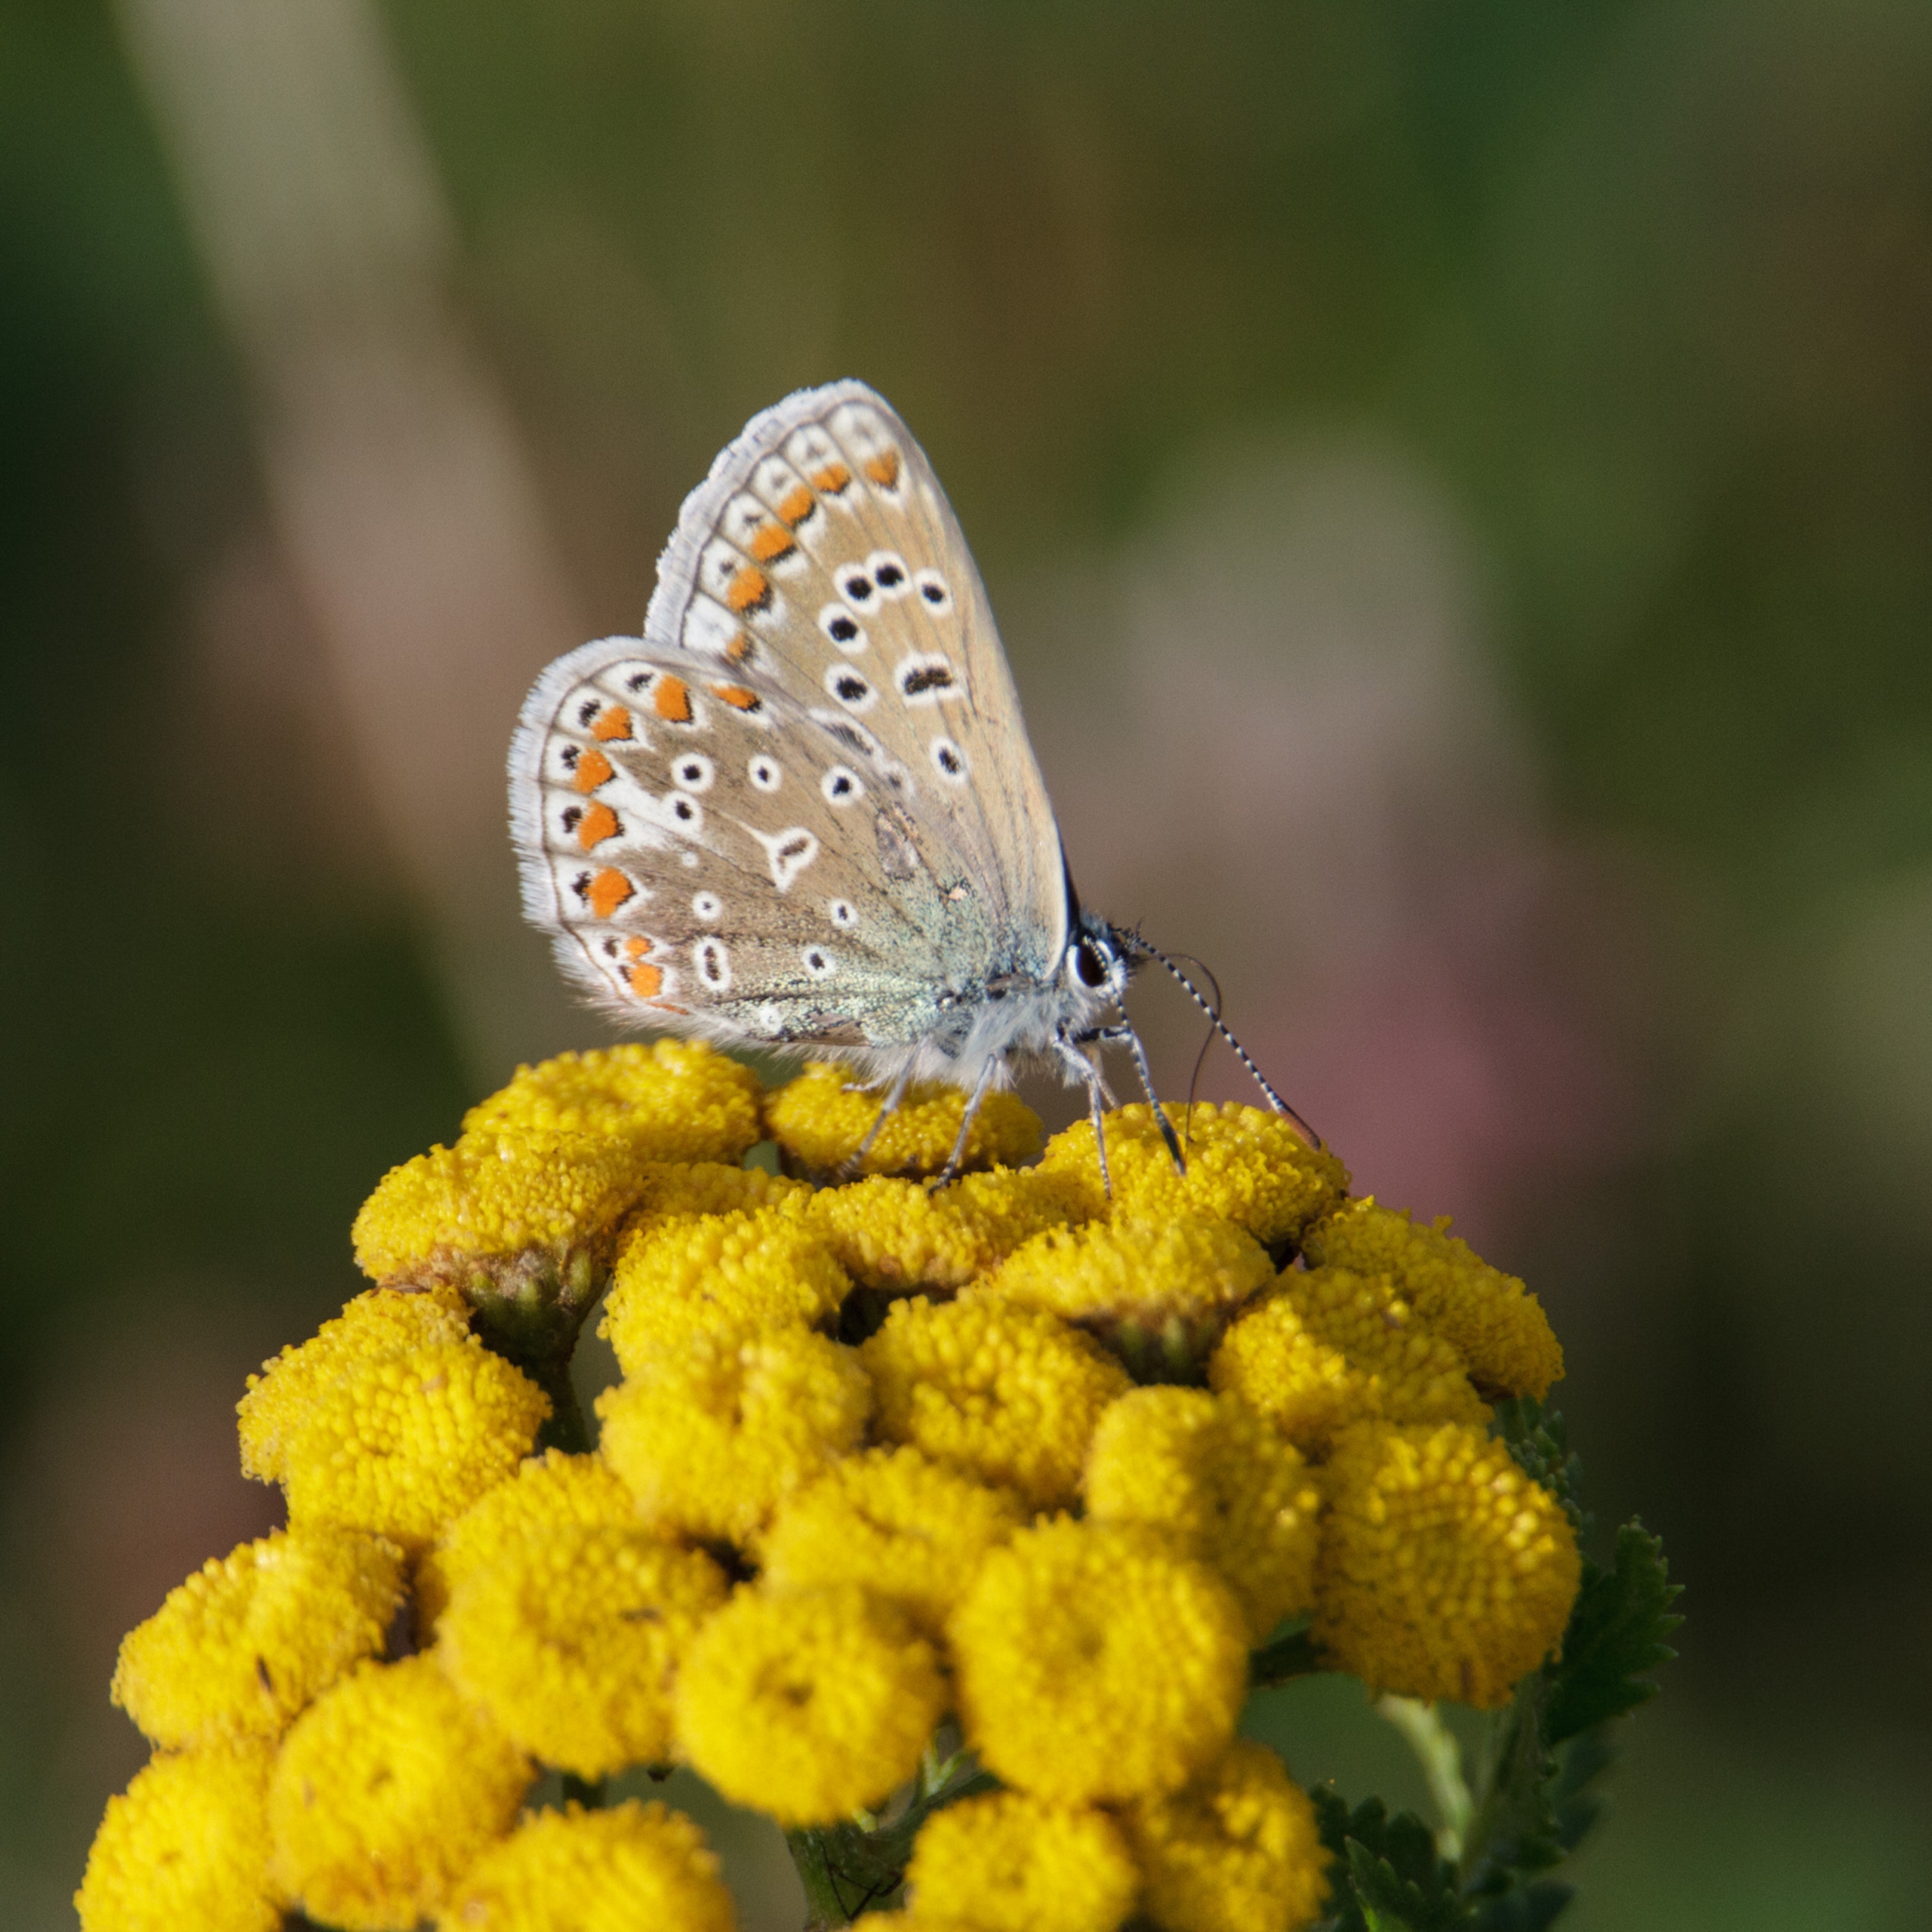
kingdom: Animalia
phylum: Arthropoda
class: Insecta
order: Lepidoptera
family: Lycaenidae
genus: Polyommatus
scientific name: Polyommatus icarus
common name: Almindelig blåfugl
